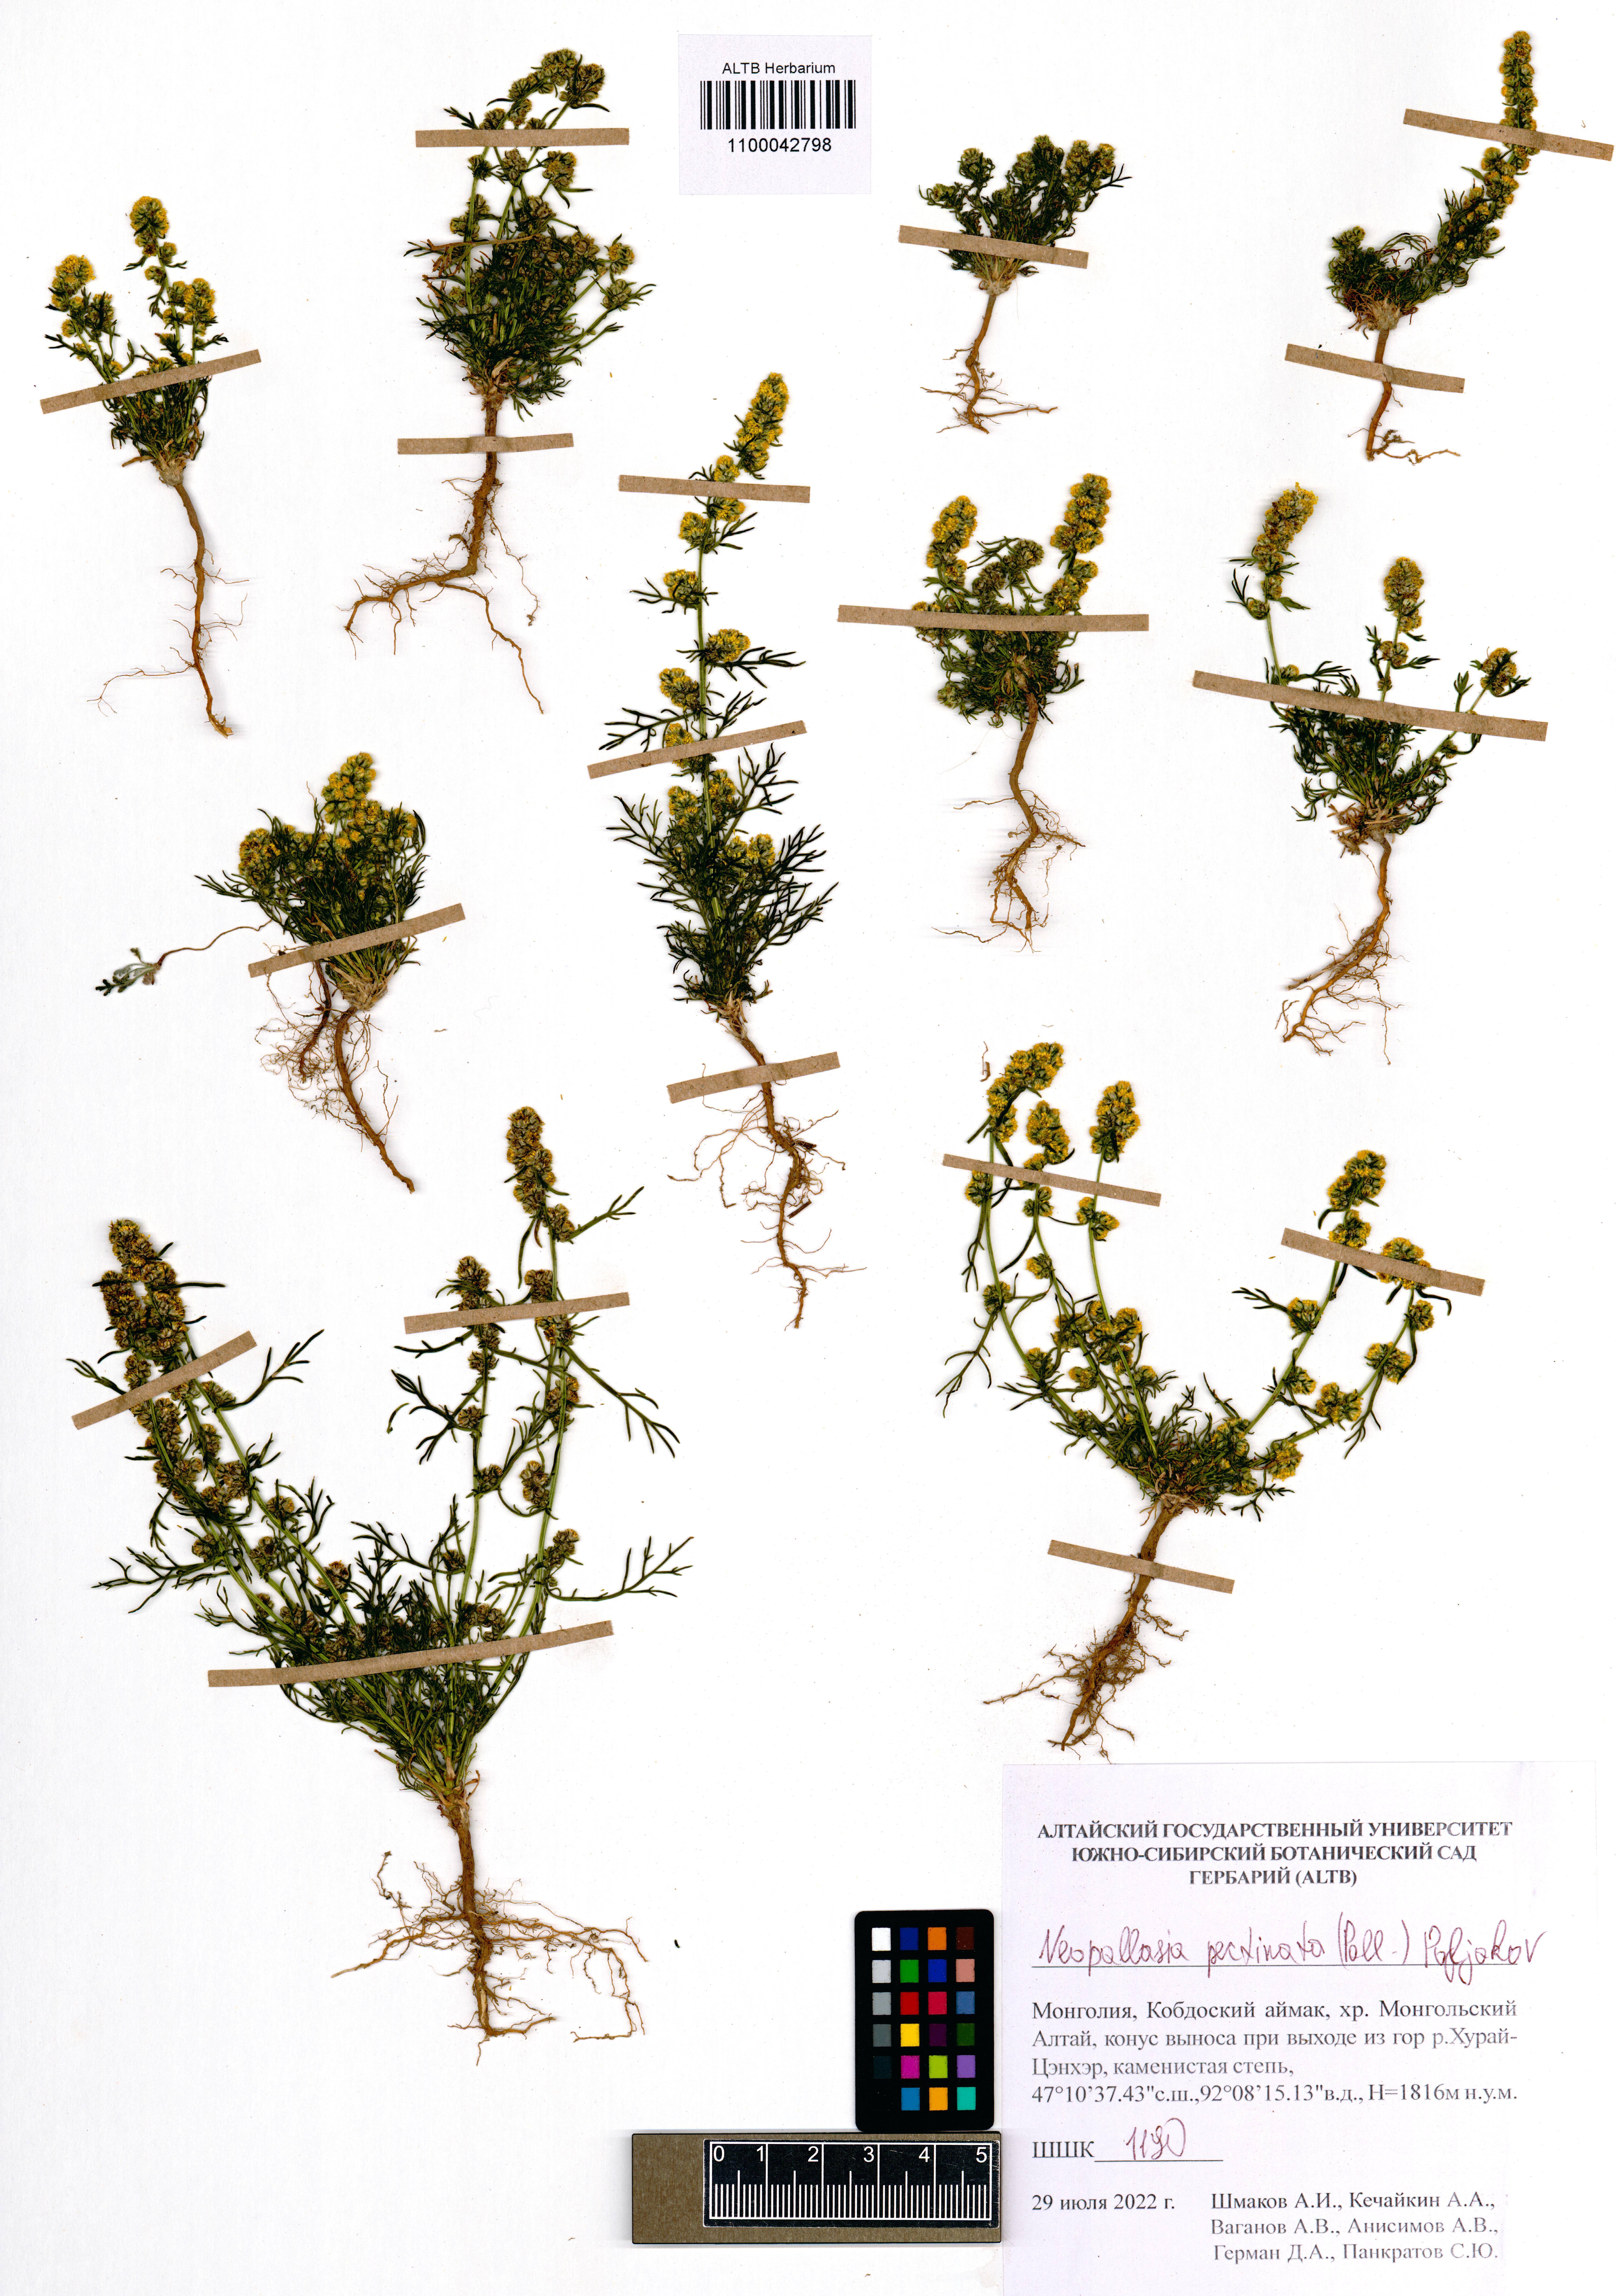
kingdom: Plantae
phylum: Tracheophyta
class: Magnoliopsida
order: Asterales
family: Asteraceae
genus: Neopallasia
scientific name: Neopallasia pectinata
